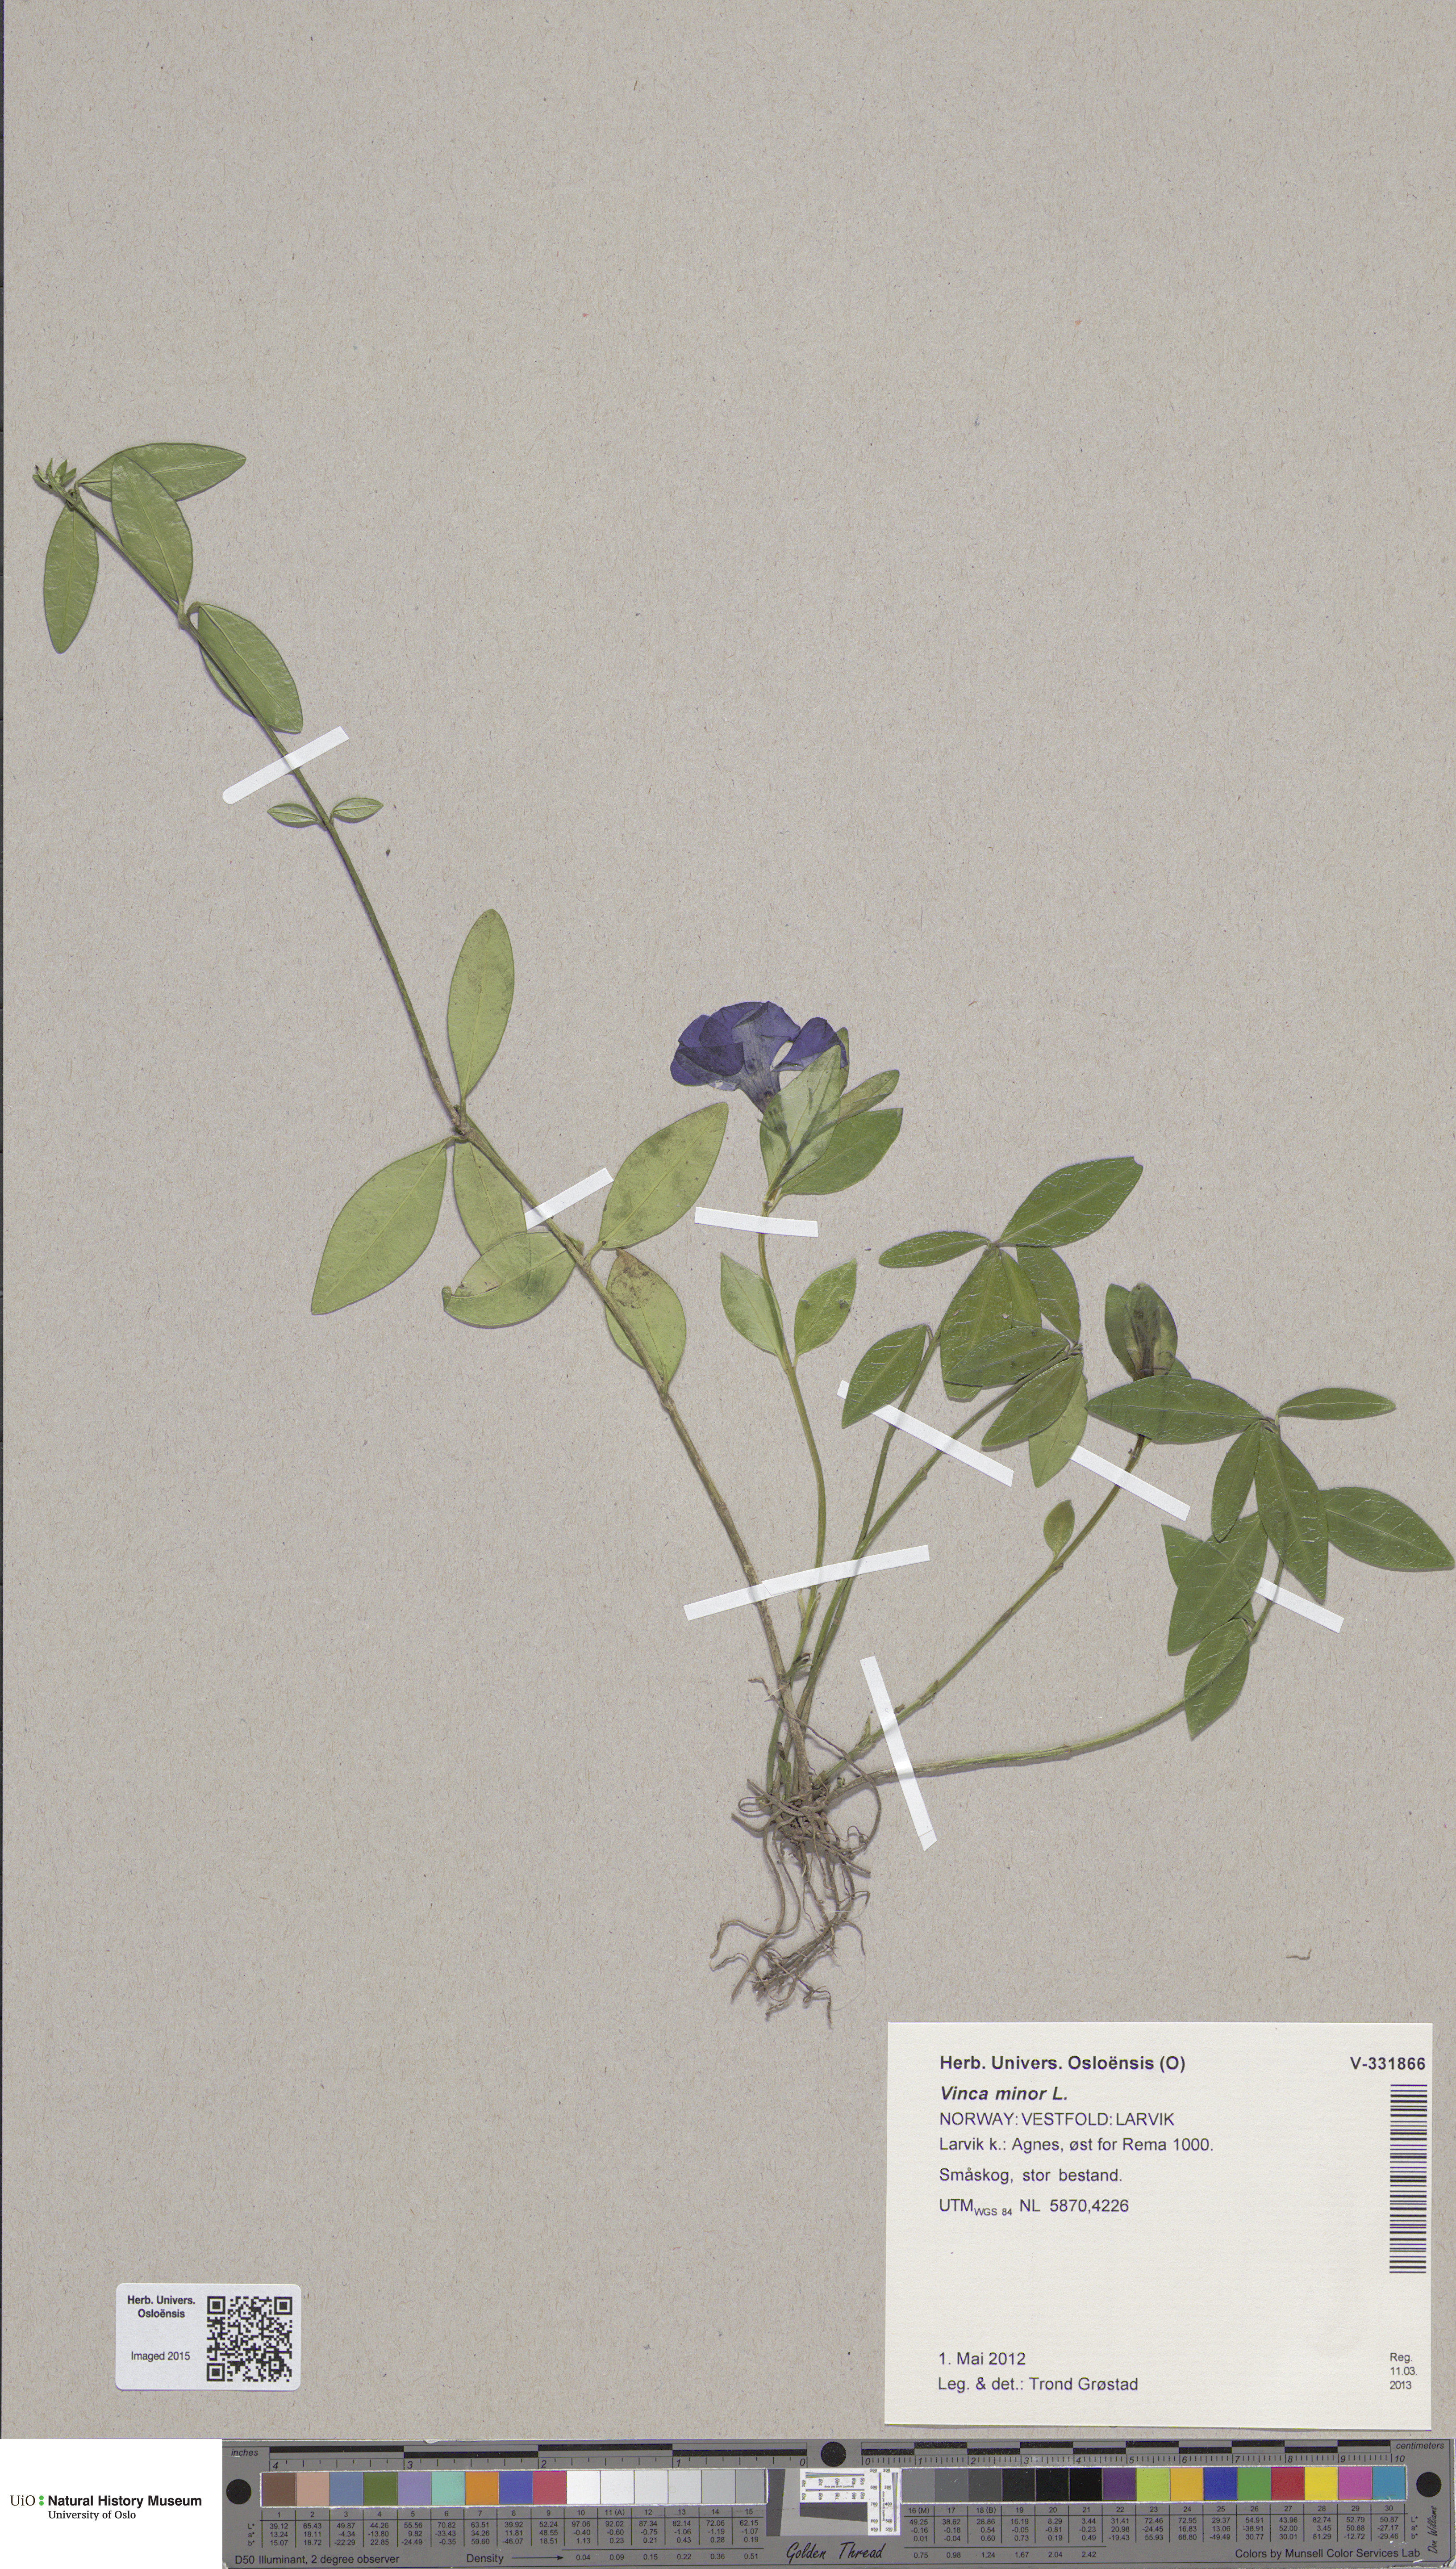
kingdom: Plantae
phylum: Tracheophyta
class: Magnoliopsida
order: Gentianales
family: Apocynaceae
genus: Vinca
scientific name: Vinca minor
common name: Lesser periwinkle
